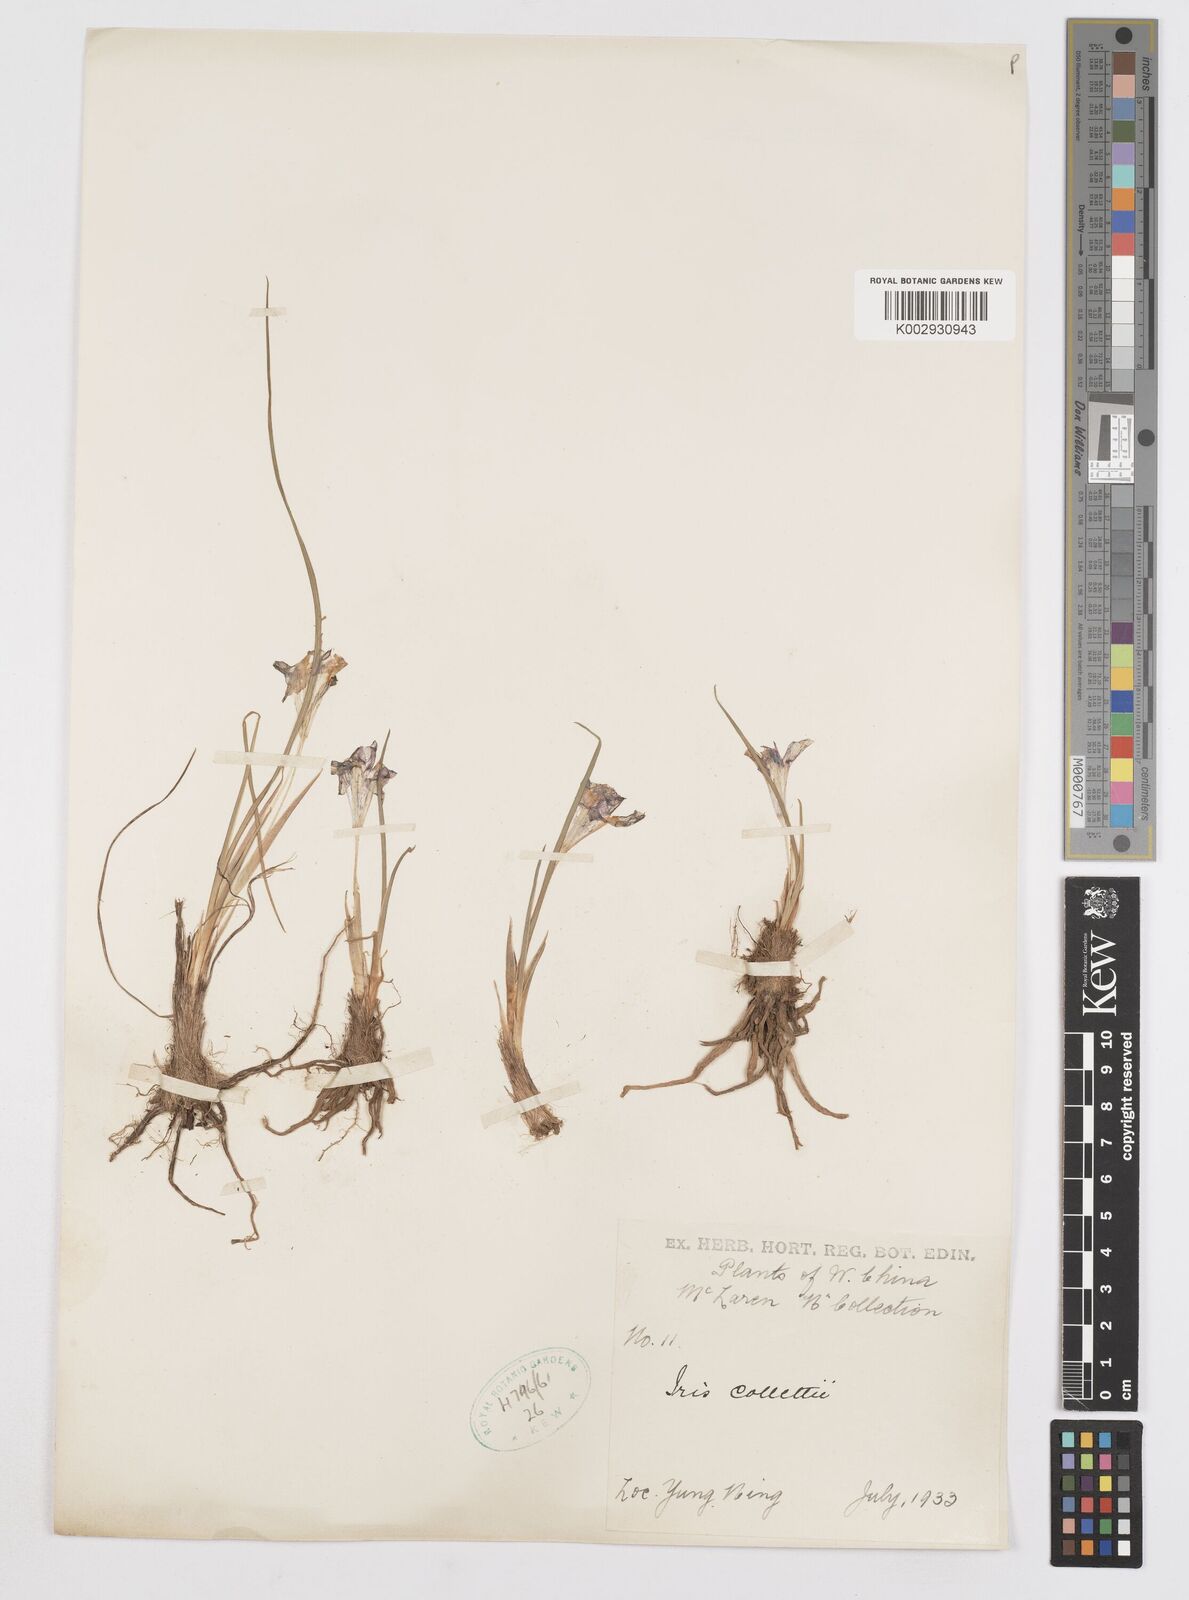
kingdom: Plantae
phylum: Tracheophyta
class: Liliopsida
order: Asparagales
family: Iridaceae
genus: Iris
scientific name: Iris collettii
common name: Plateau iris
